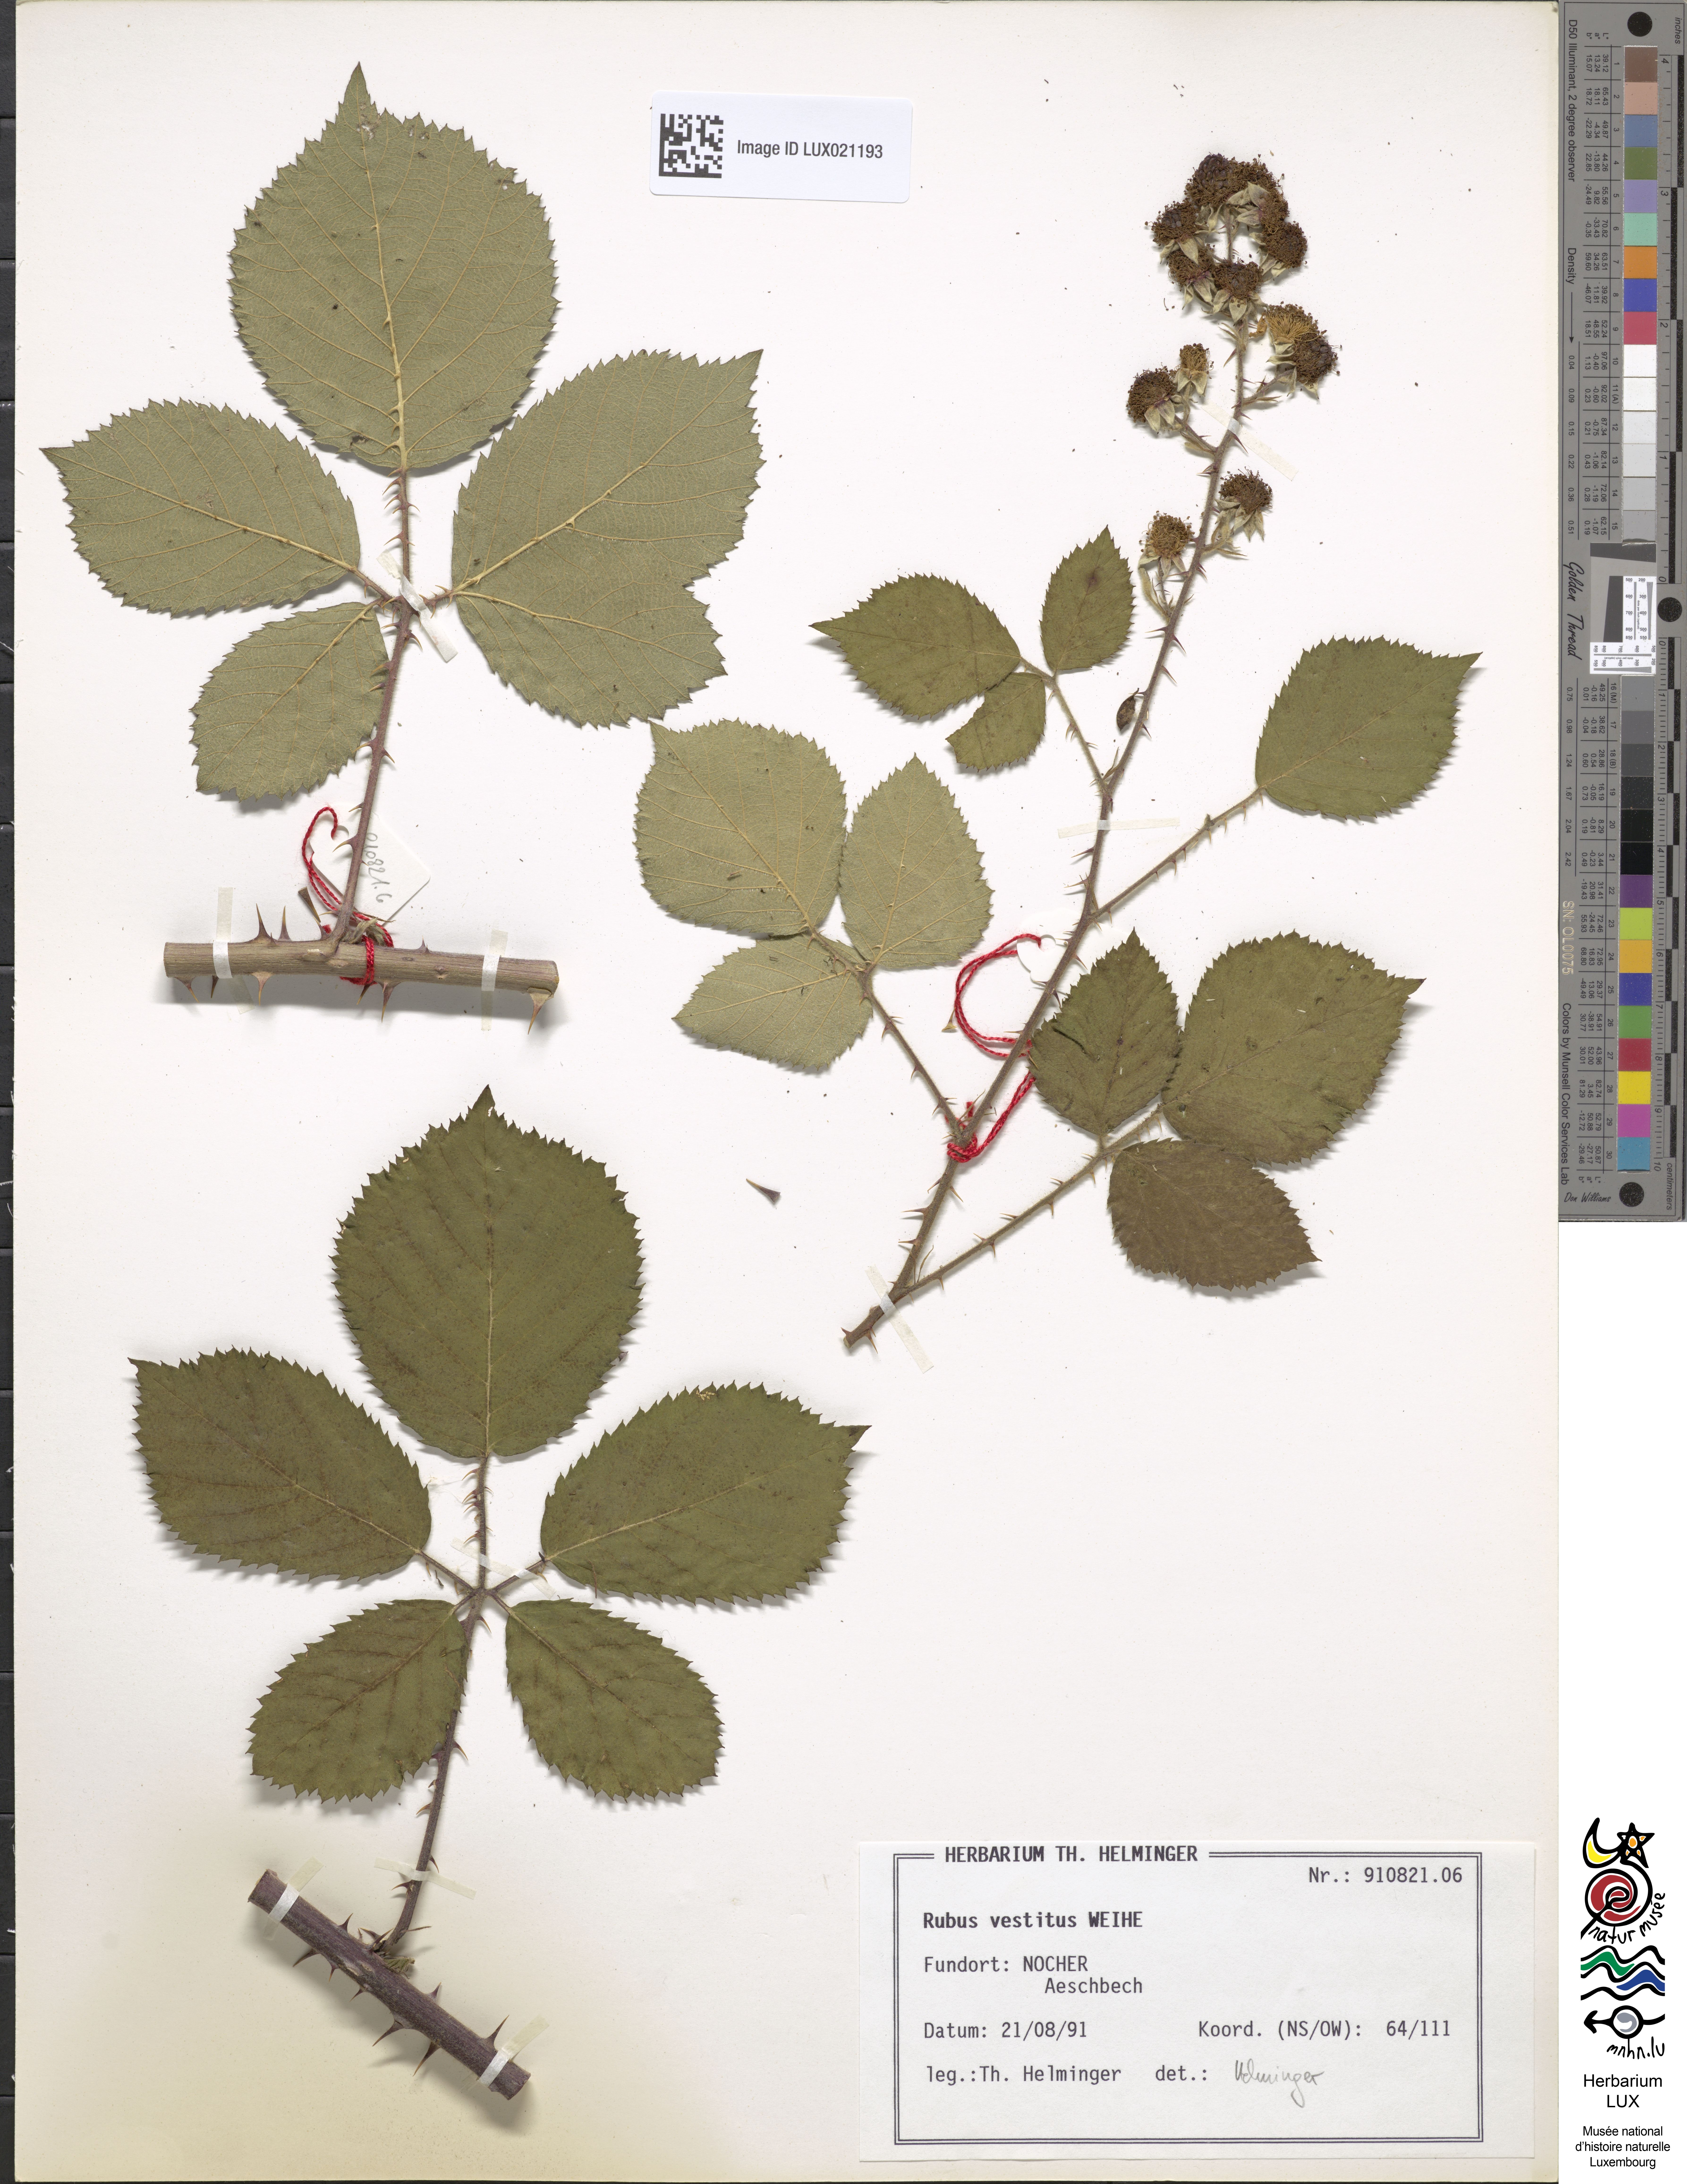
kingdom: Plantae
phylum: Tracheophyta
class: Magnoliopsida
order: Rosales
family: Rosaceae
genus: Rubus
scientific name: Rubus vestitus
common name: European blackberry
